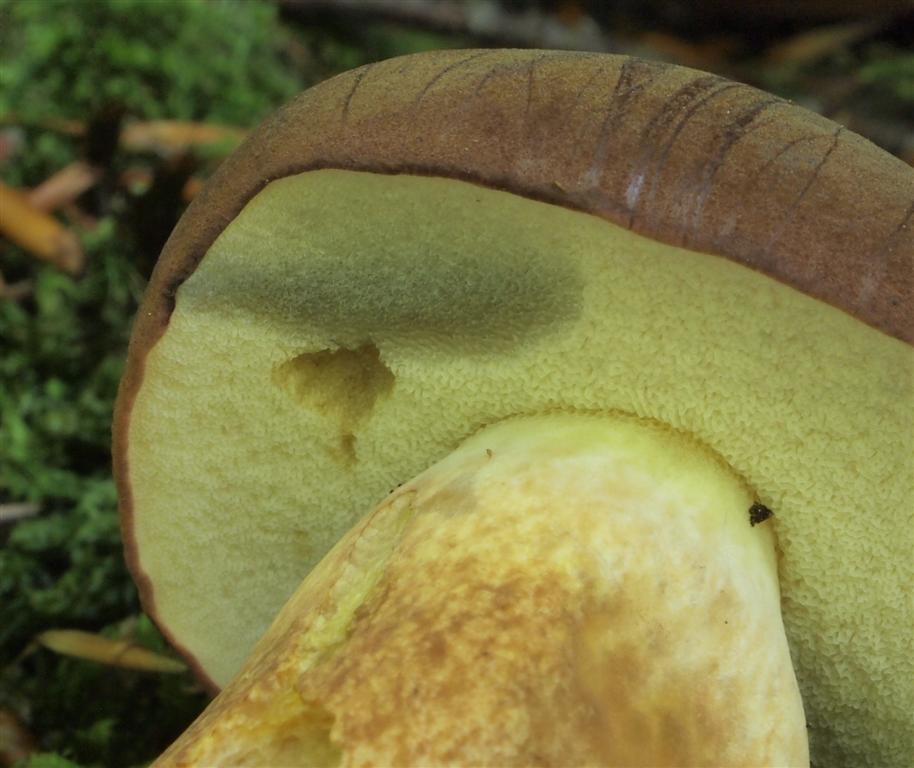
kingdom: Fungi
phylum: Basidiomycota
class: Agaricomycetes
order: Boletales
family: Boletaceae
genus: Imleria
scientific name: Imleria badia
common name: brunstokket rørhat
